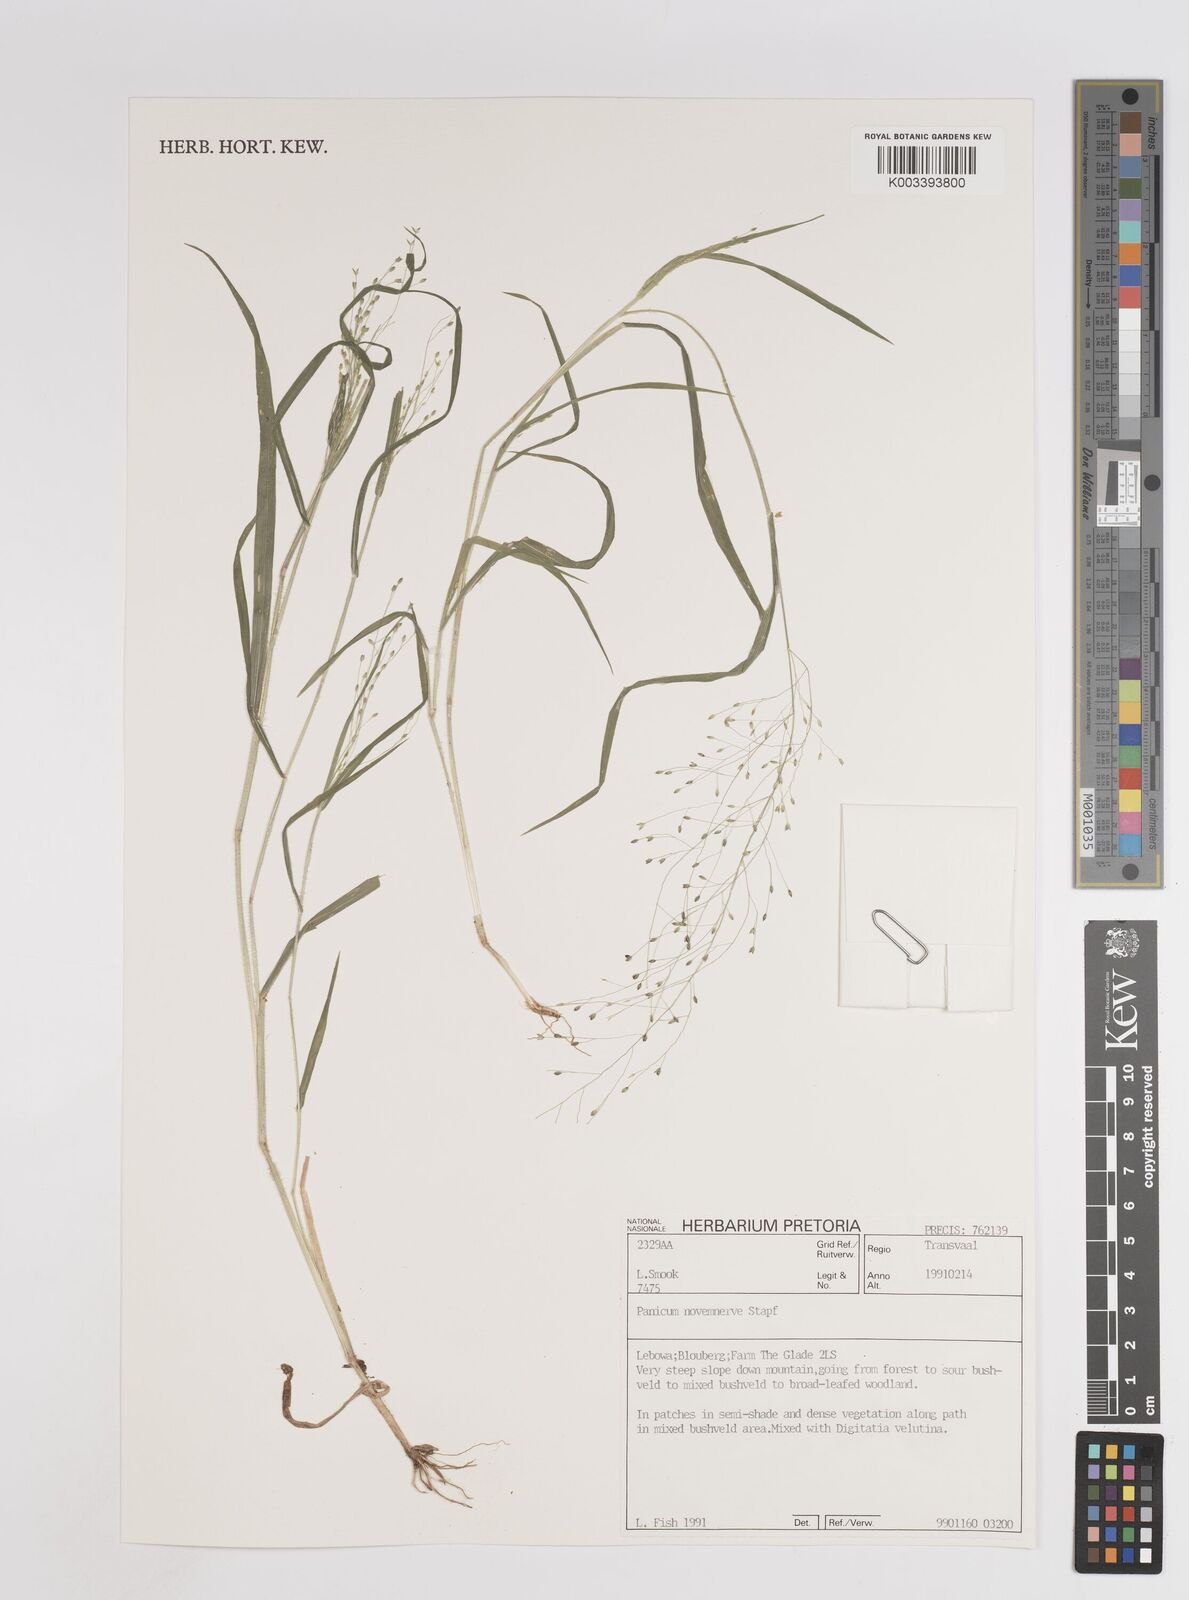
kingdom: Plantae
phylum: Tracheophyta
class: Liliopsida
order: Poales
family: Poaceae
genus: Panicum
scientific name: Panicum novemnerve
